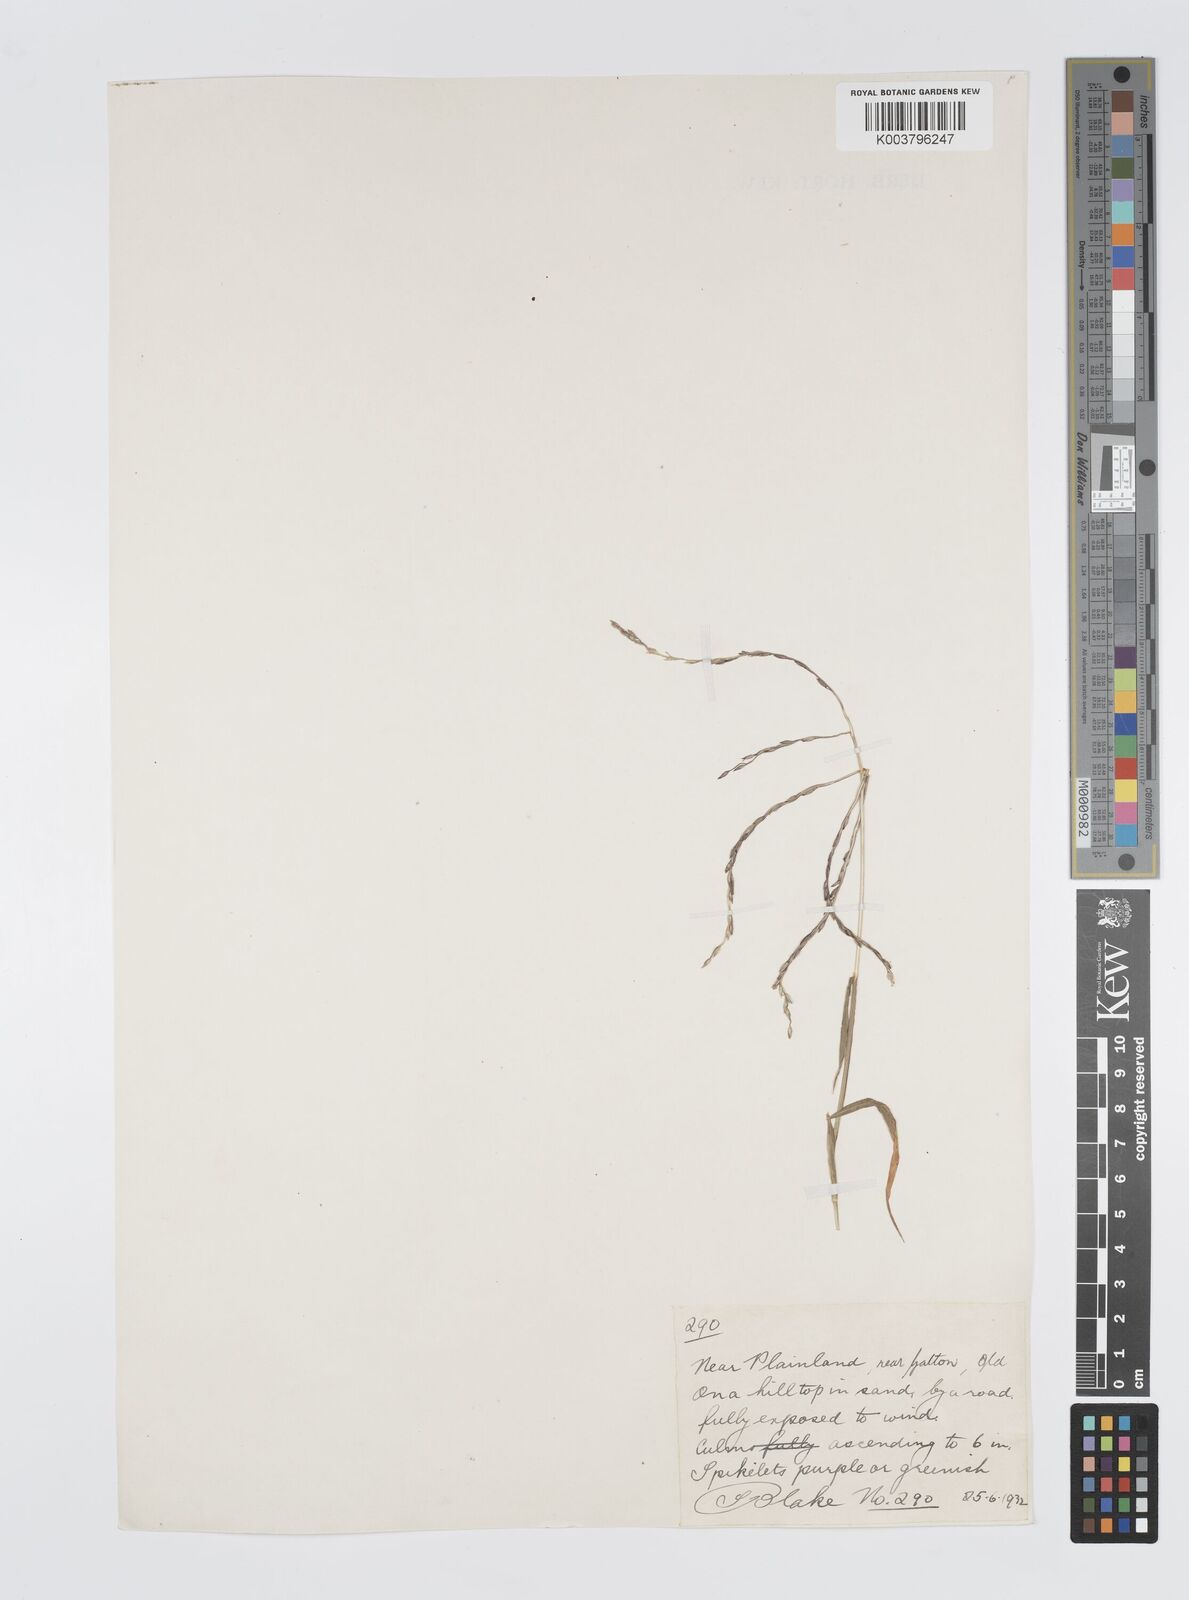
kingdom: Plantae
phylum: Tracheophyta
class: Liliopsida
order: Poales
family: Poaceae
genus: Digitaria
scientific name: Digitaria divaricatissima
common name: Crabgrass
